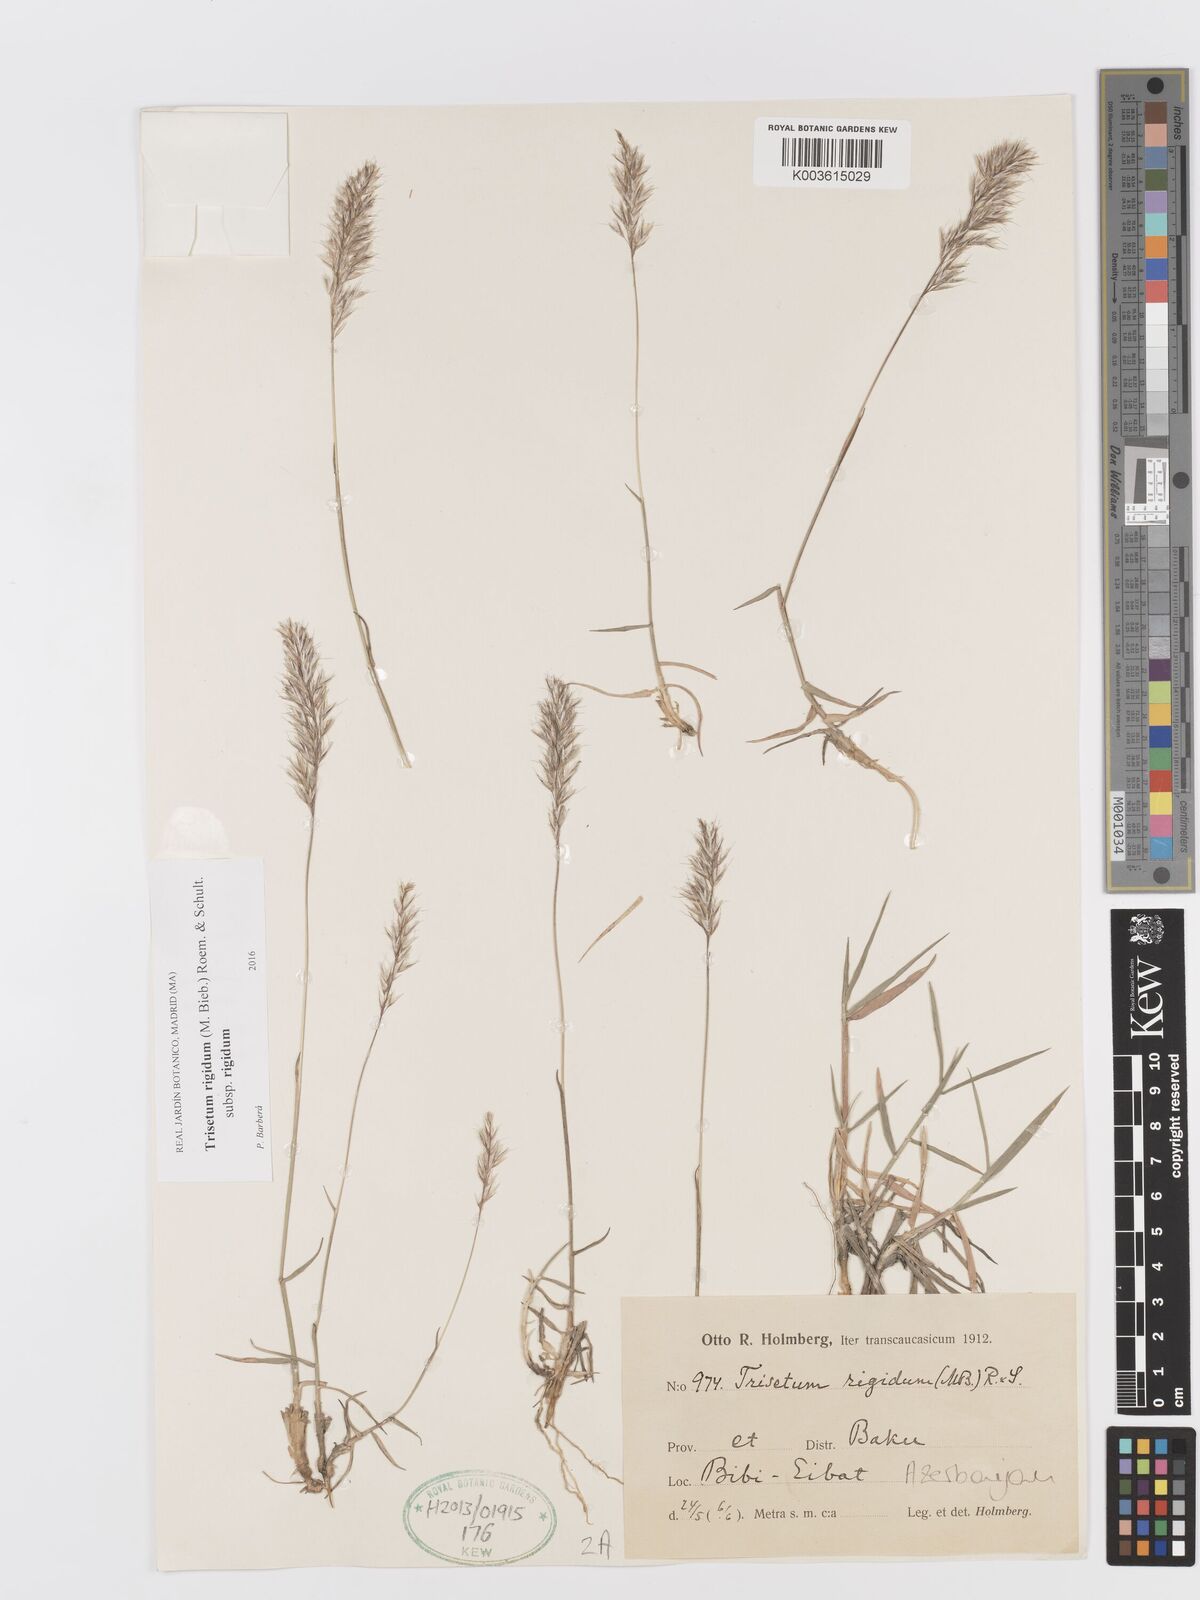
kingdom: Plantae
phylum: Tracheophyta
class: Liliopsida
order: Poales
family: Poaceae
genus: Trisetum
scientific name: Trisetum rigidum
